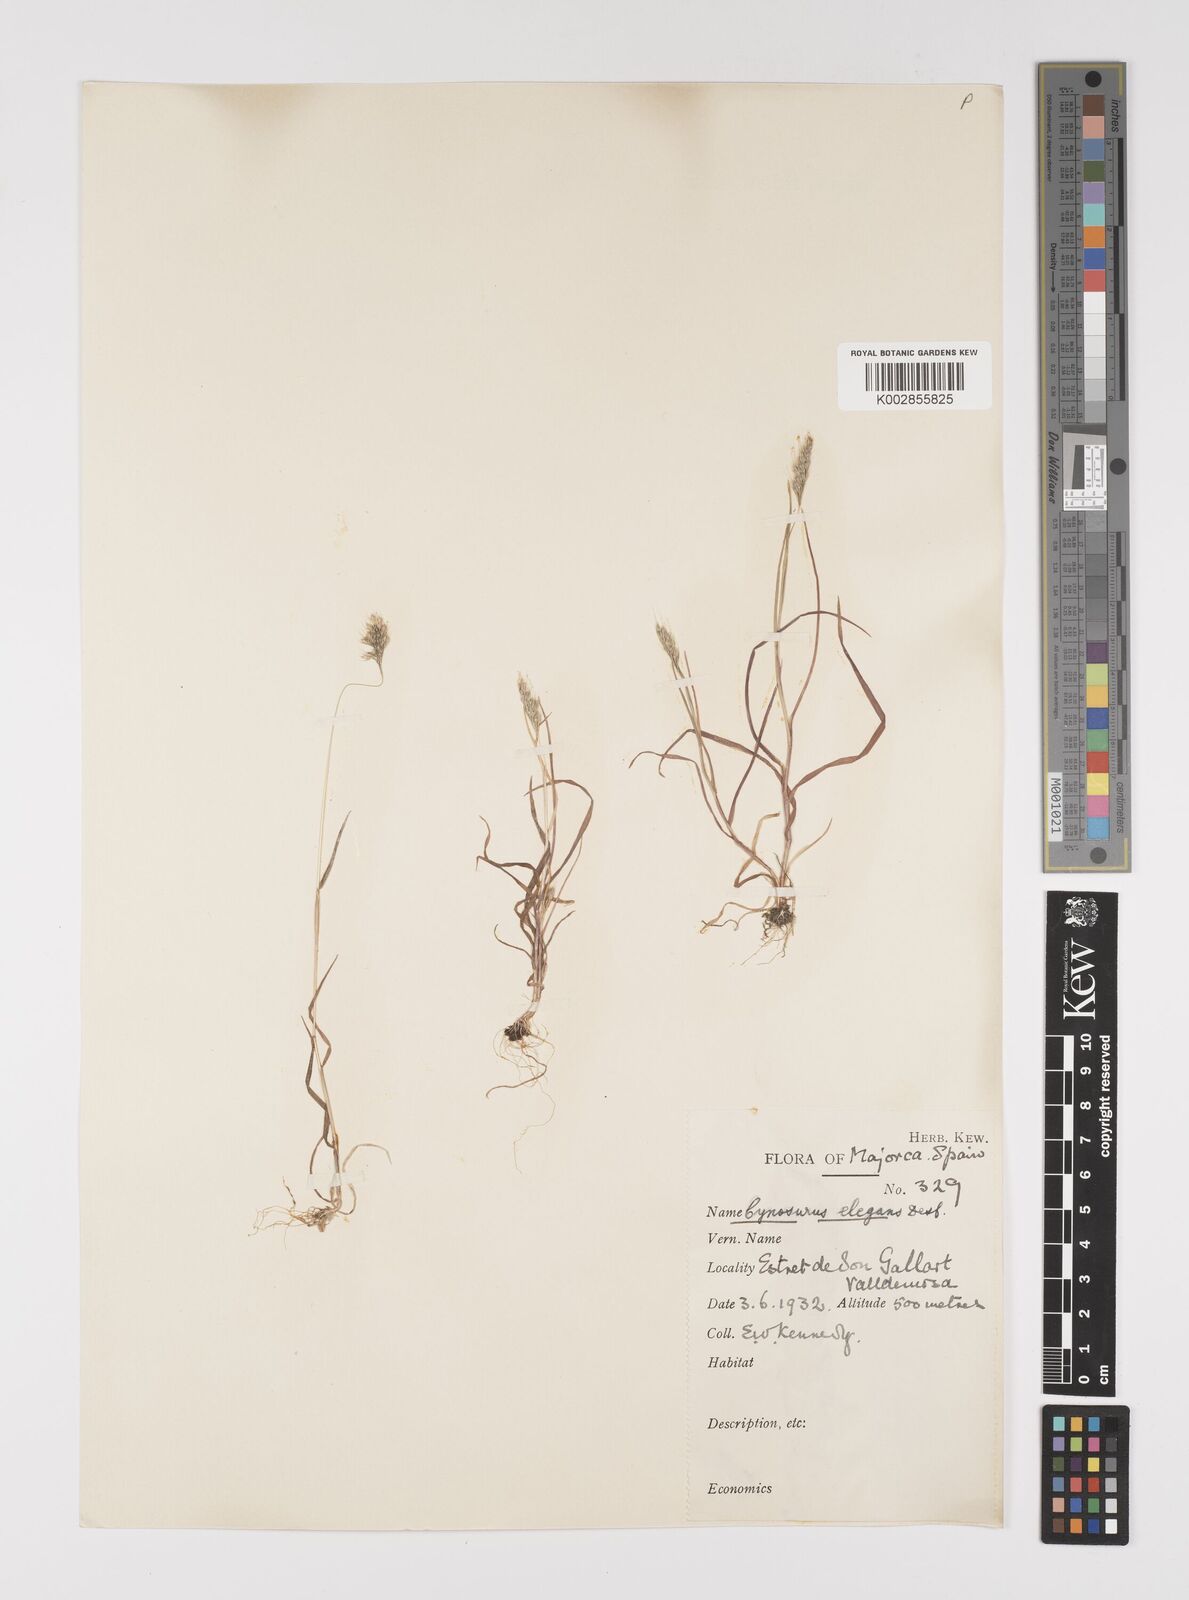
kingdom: Plantae
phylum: Tracheophyta
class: Liliopsida
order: Poales
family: Poaceae
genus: Cynosurus
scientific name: Cynosurus elegans
